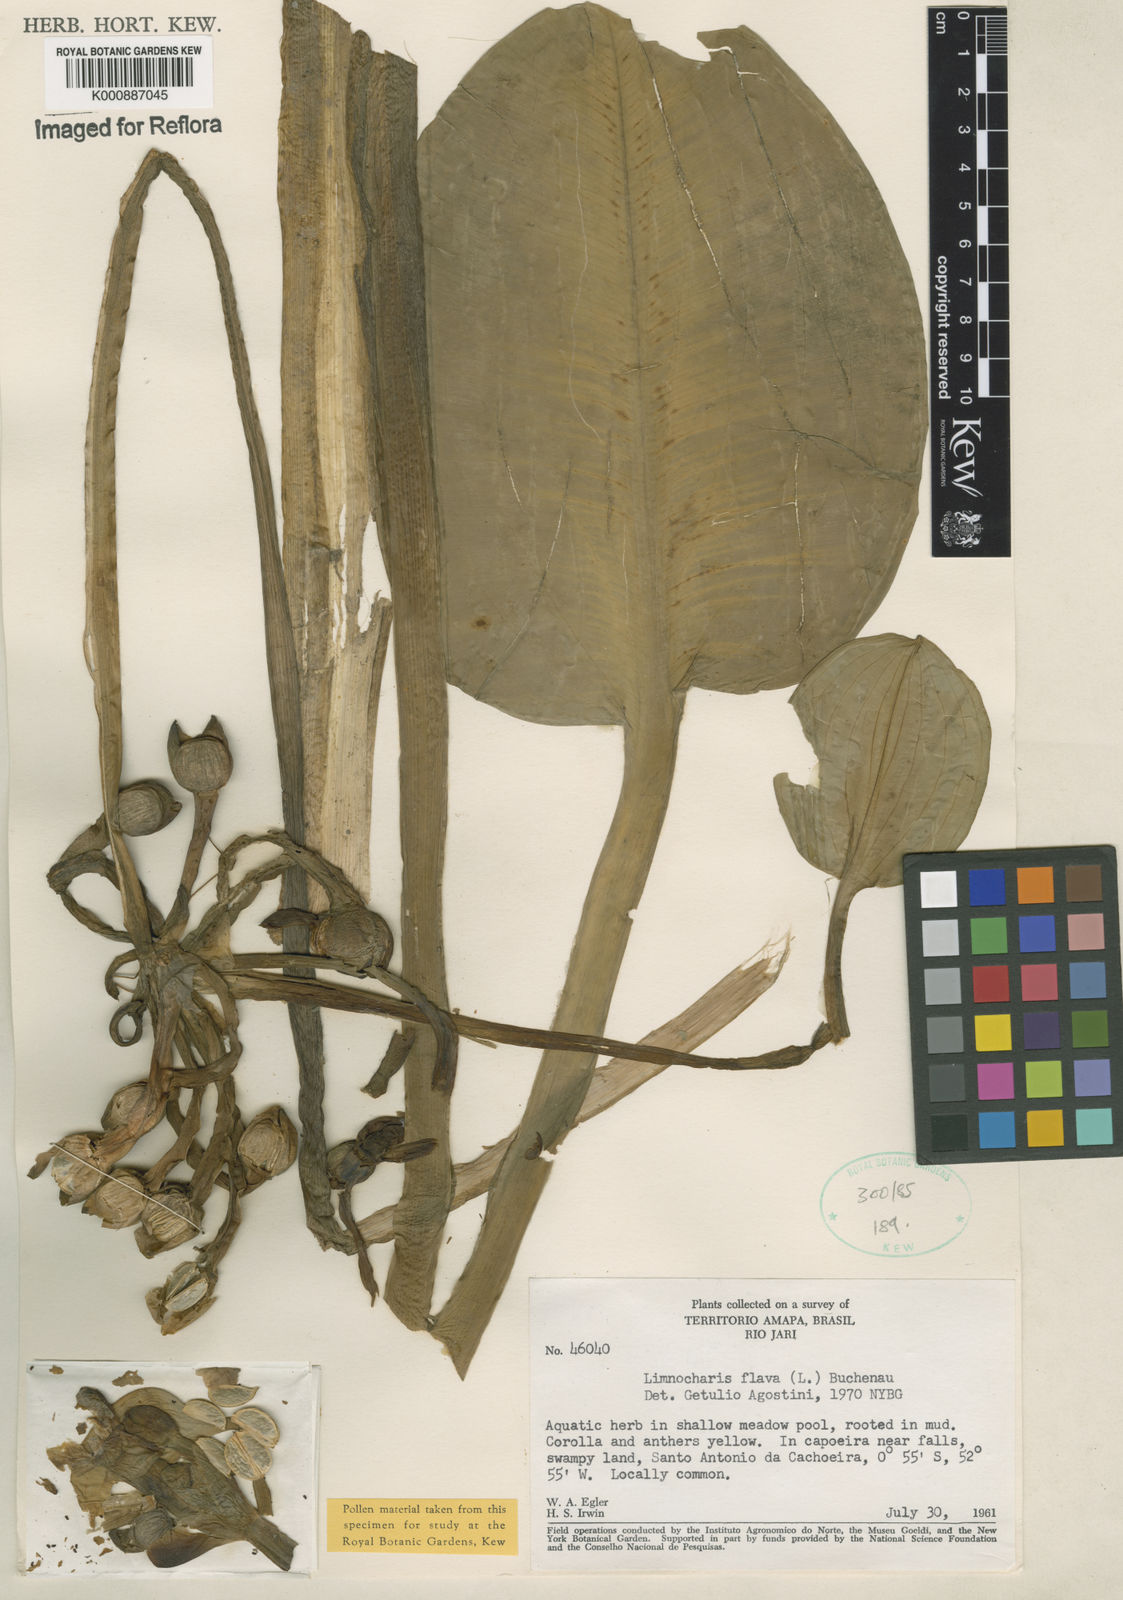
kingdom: Plantae
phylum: Tracheophyta
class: Liliopsida
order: Alismatales
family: Alismataceae
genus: Limnocharis
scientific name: Limnocharis flava
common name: Sawah-flower-rush
